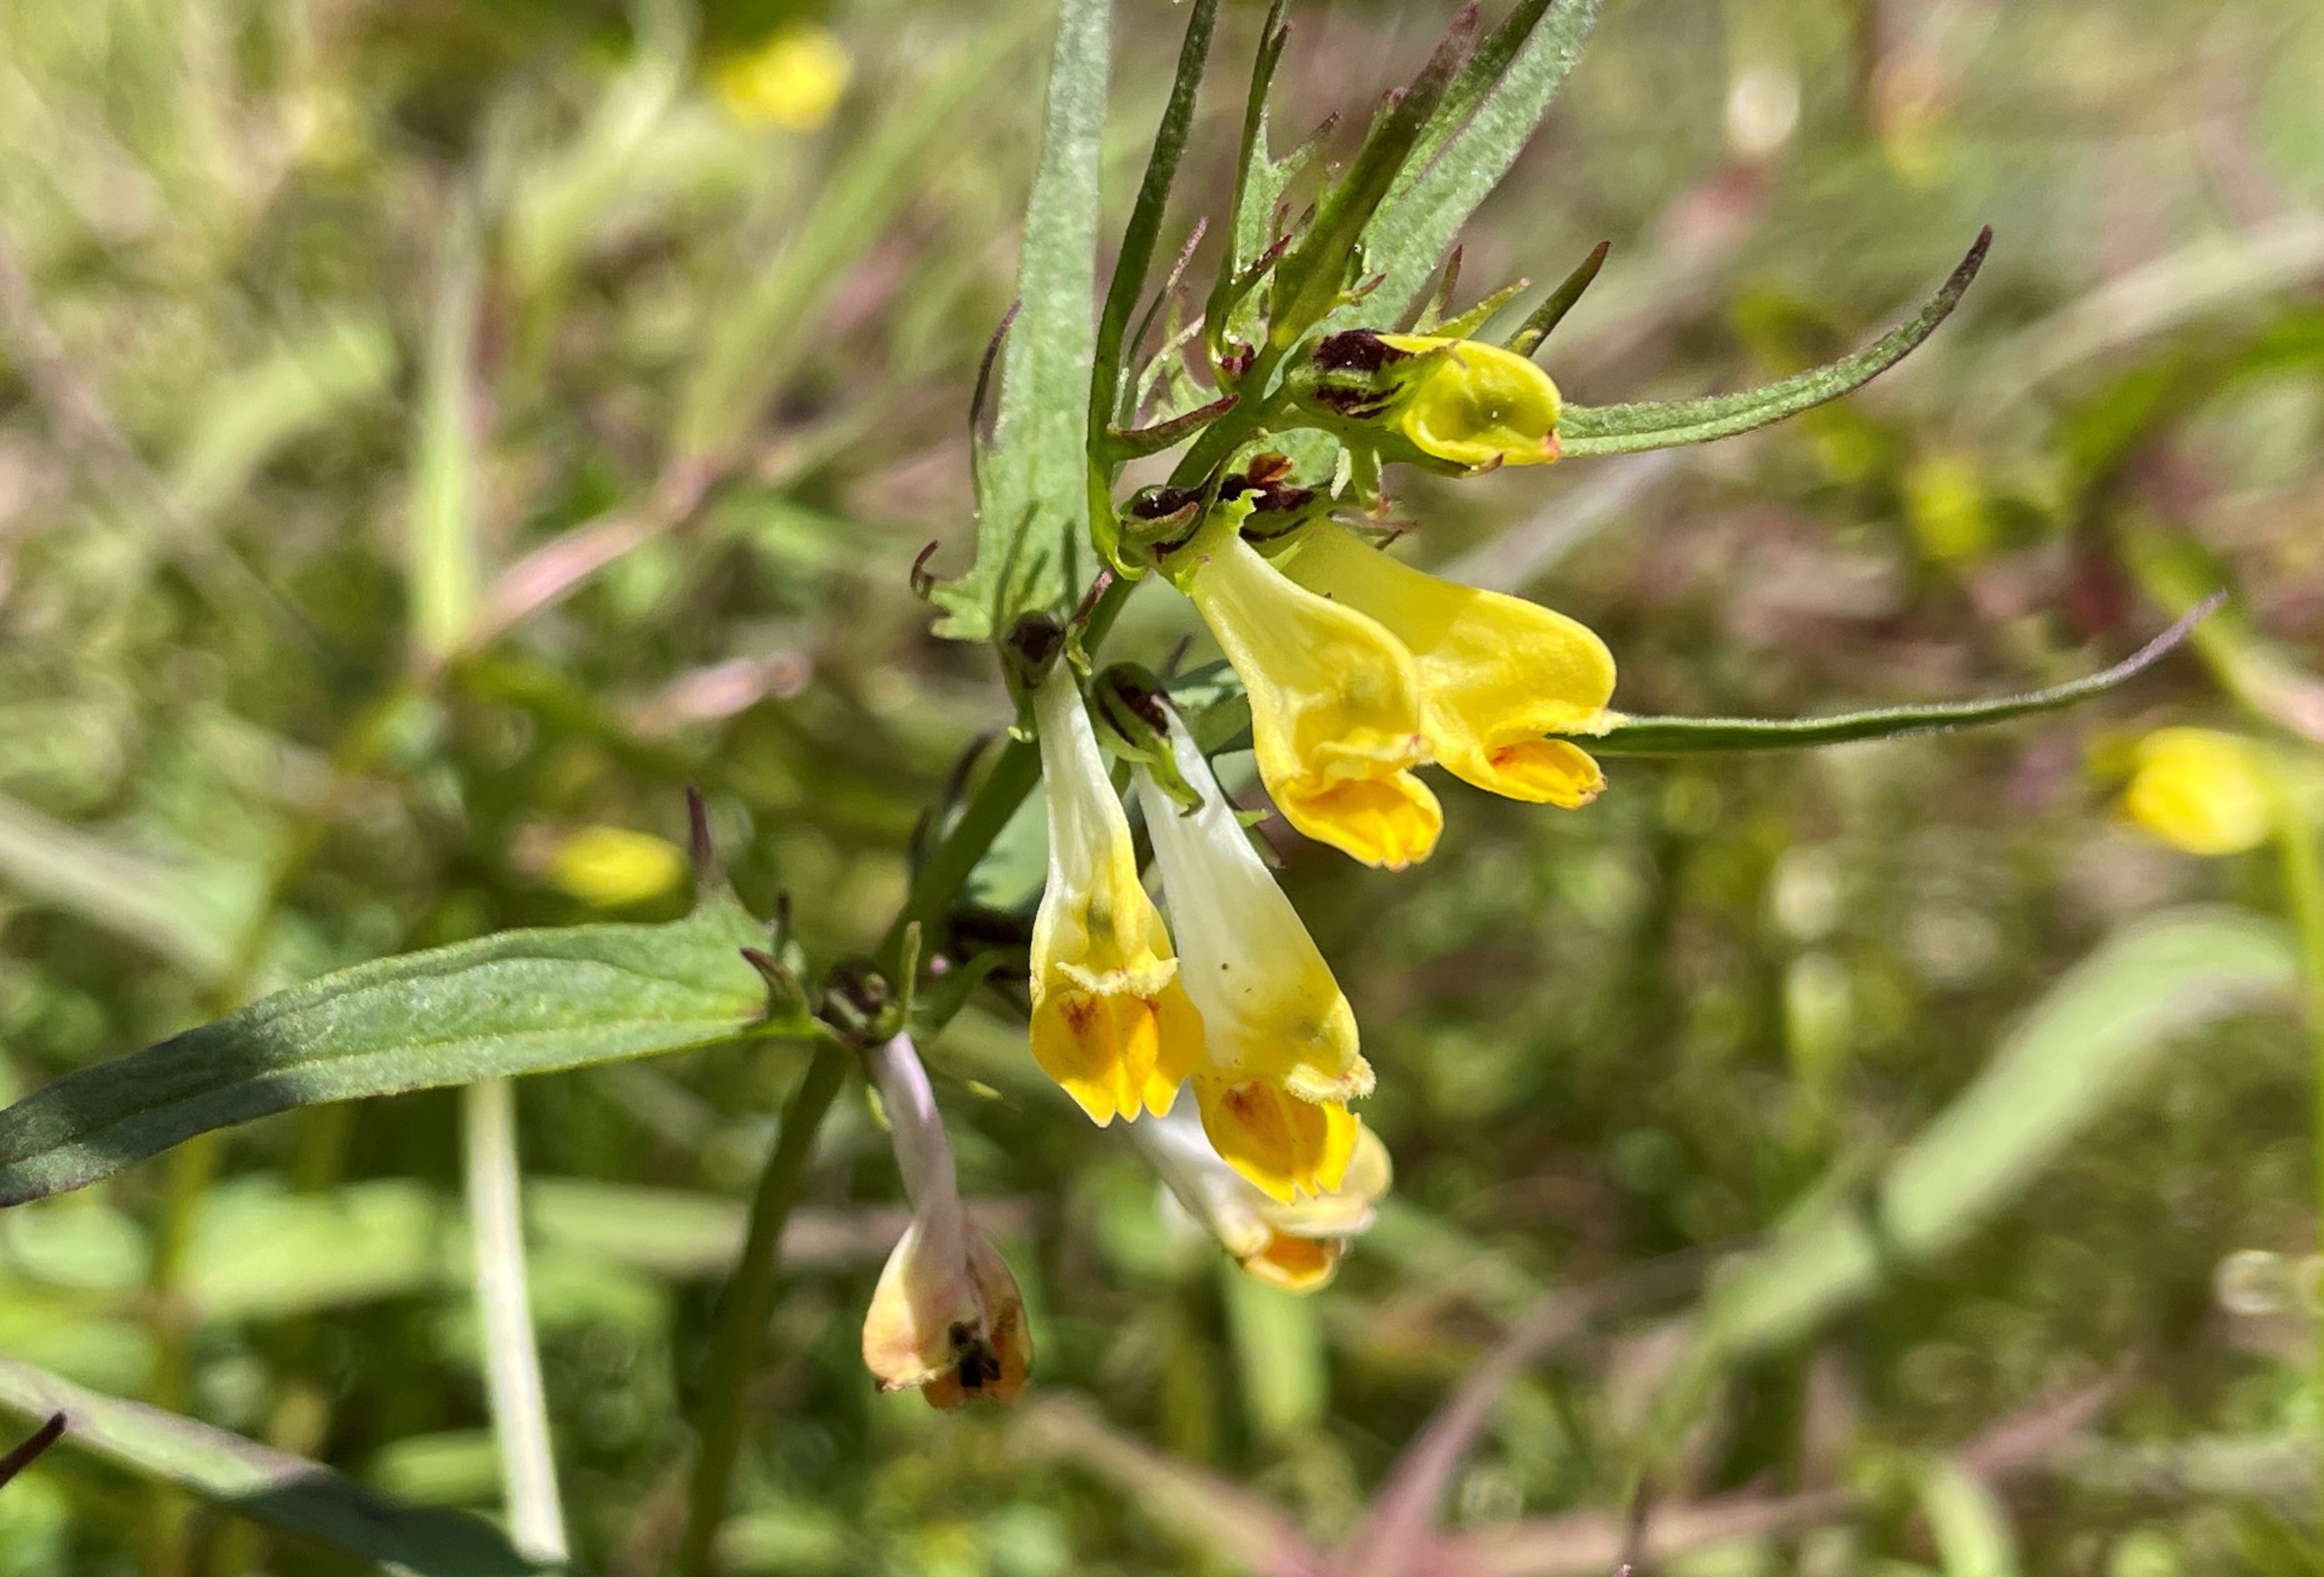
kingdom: Plantae
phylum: Tracheophyta
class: Magnoliopsida
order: Lamiales
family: Orobanchaceae
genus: Melampyrum
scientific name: Melampyrum pratense
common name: Almindelig kohvede
